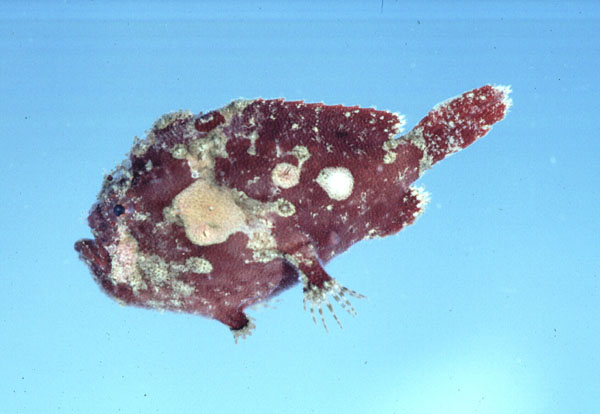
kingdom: Animalia
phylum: Chordata
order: Lophiiformes
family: Antennariidae
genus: Antennatus
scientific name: Antennatus coccineus
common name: Scarlet frogfish
